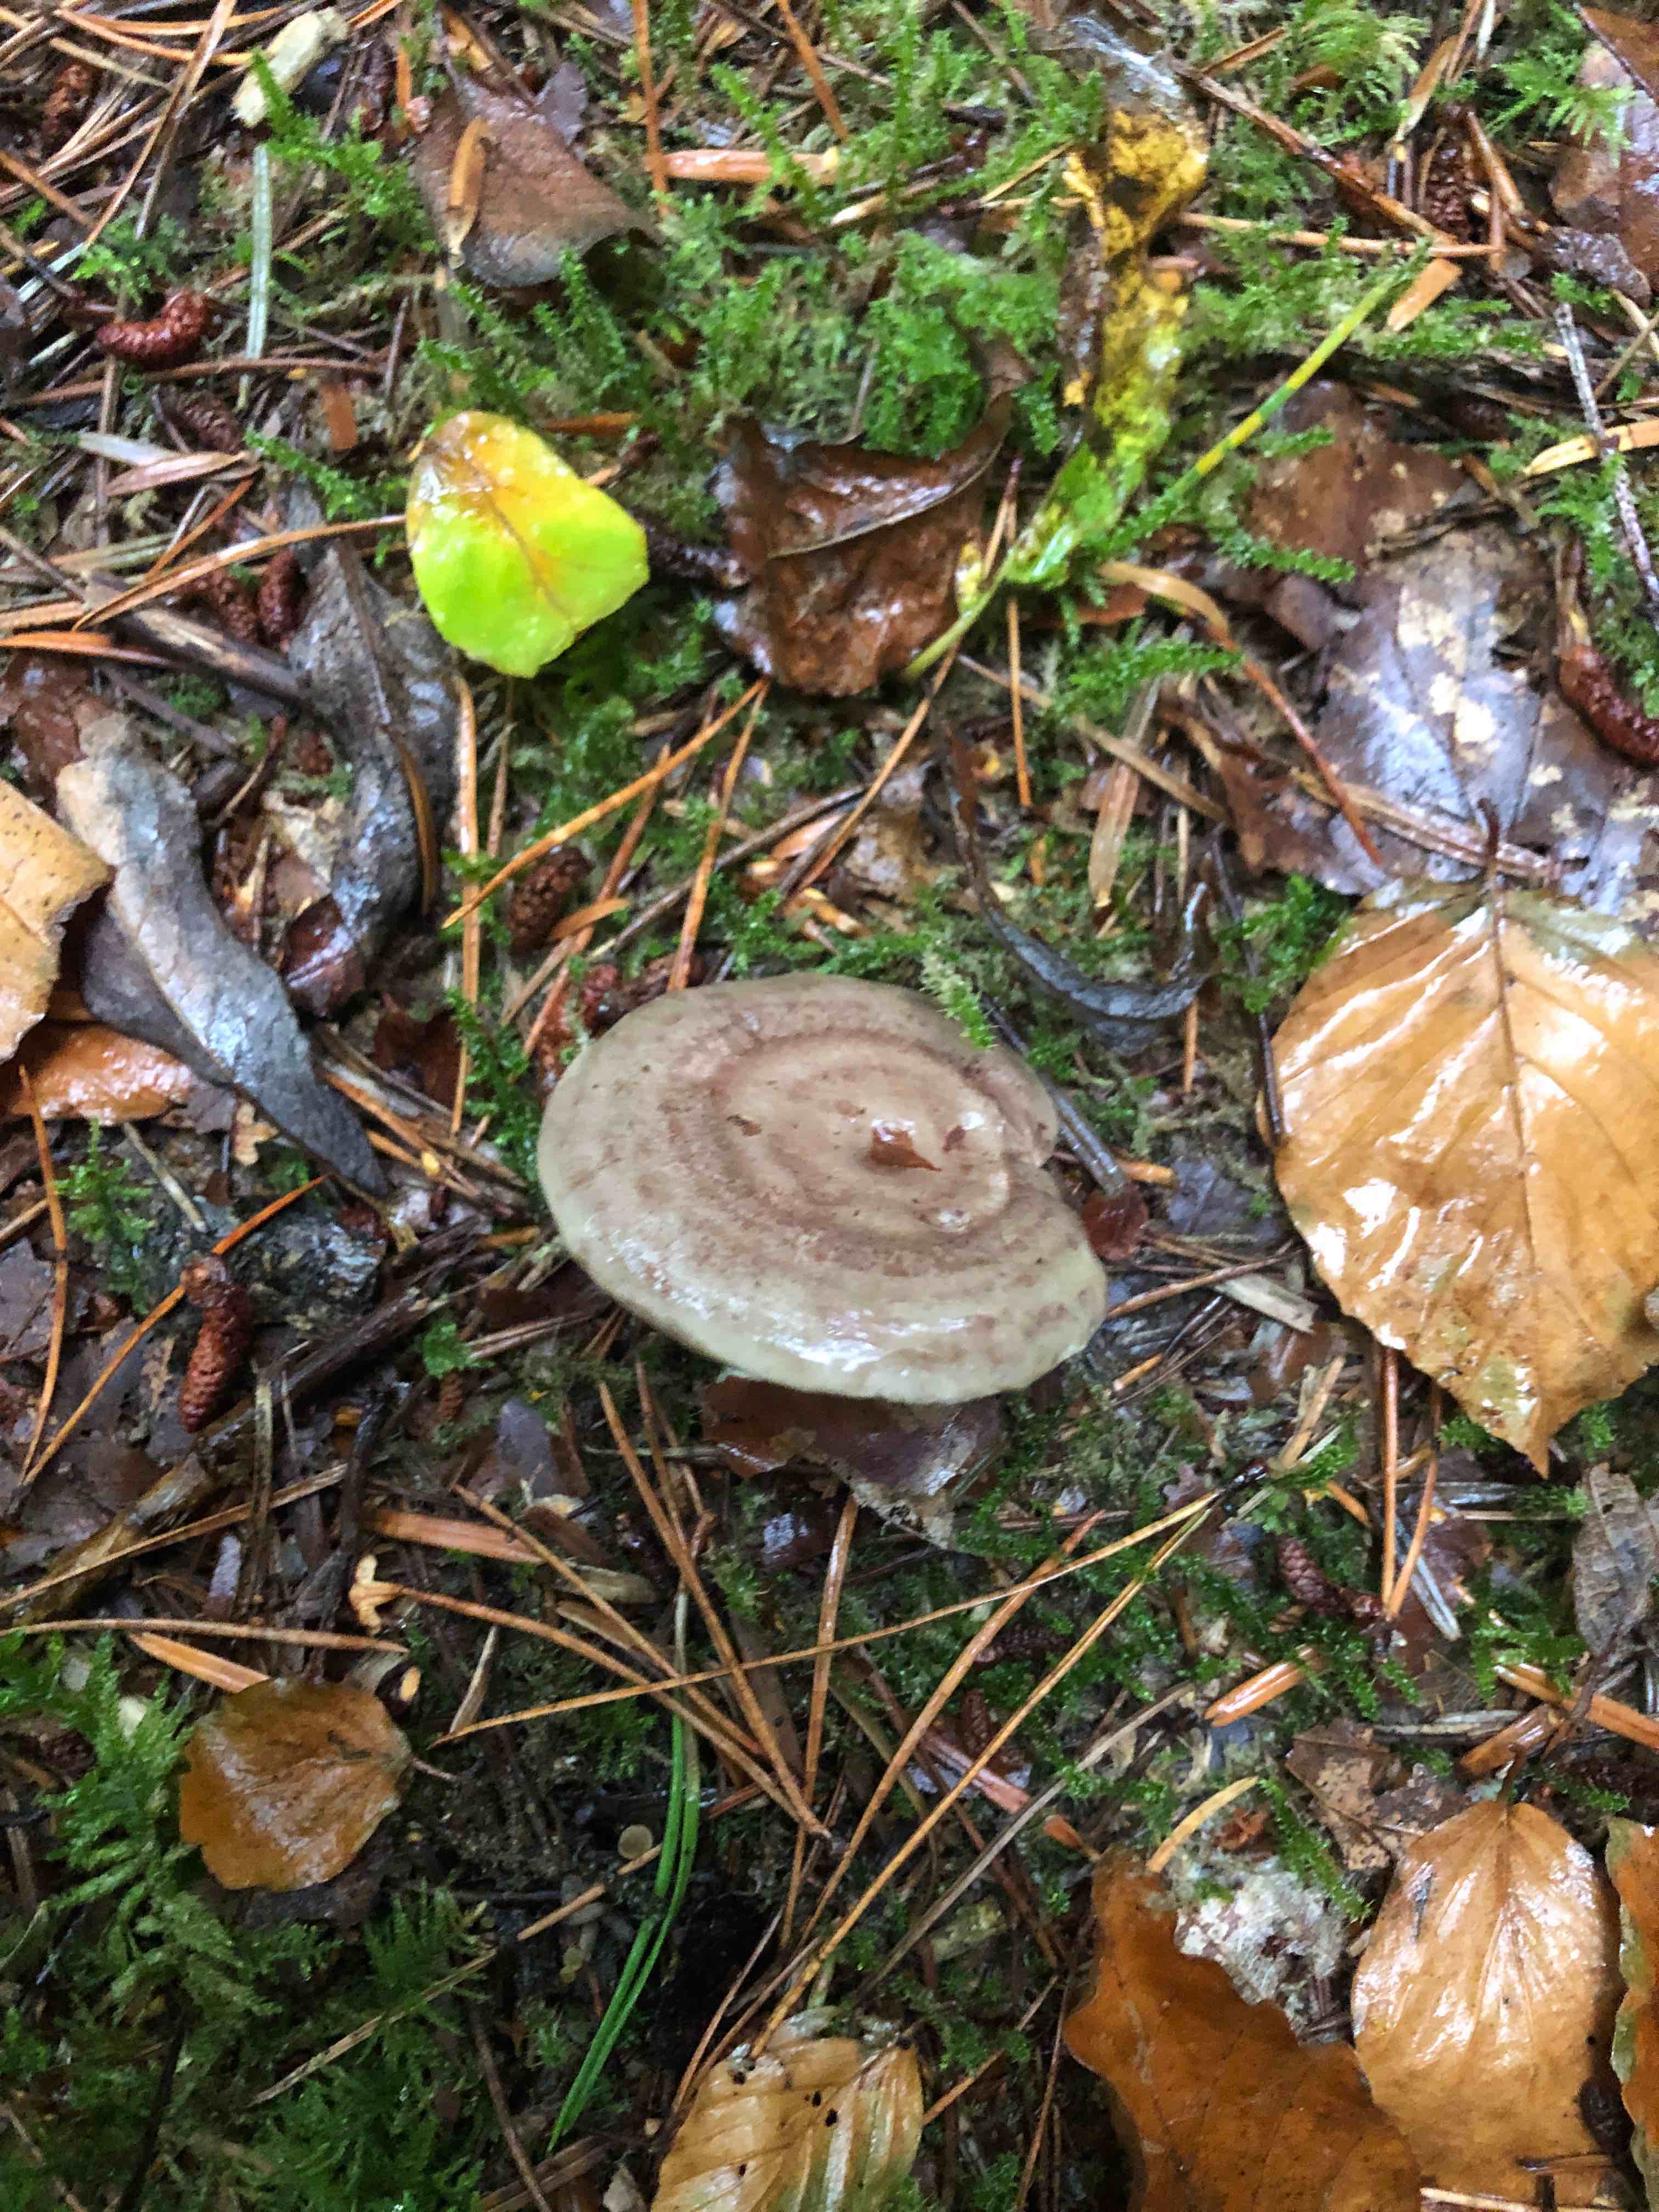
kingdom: Fungi
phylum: Basidiomycota
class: Agaricomycetes
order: Russulales
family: Russulaceae
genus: Lactarius
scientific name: Lactarius blennius
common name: dråbeplettet mælkehat
